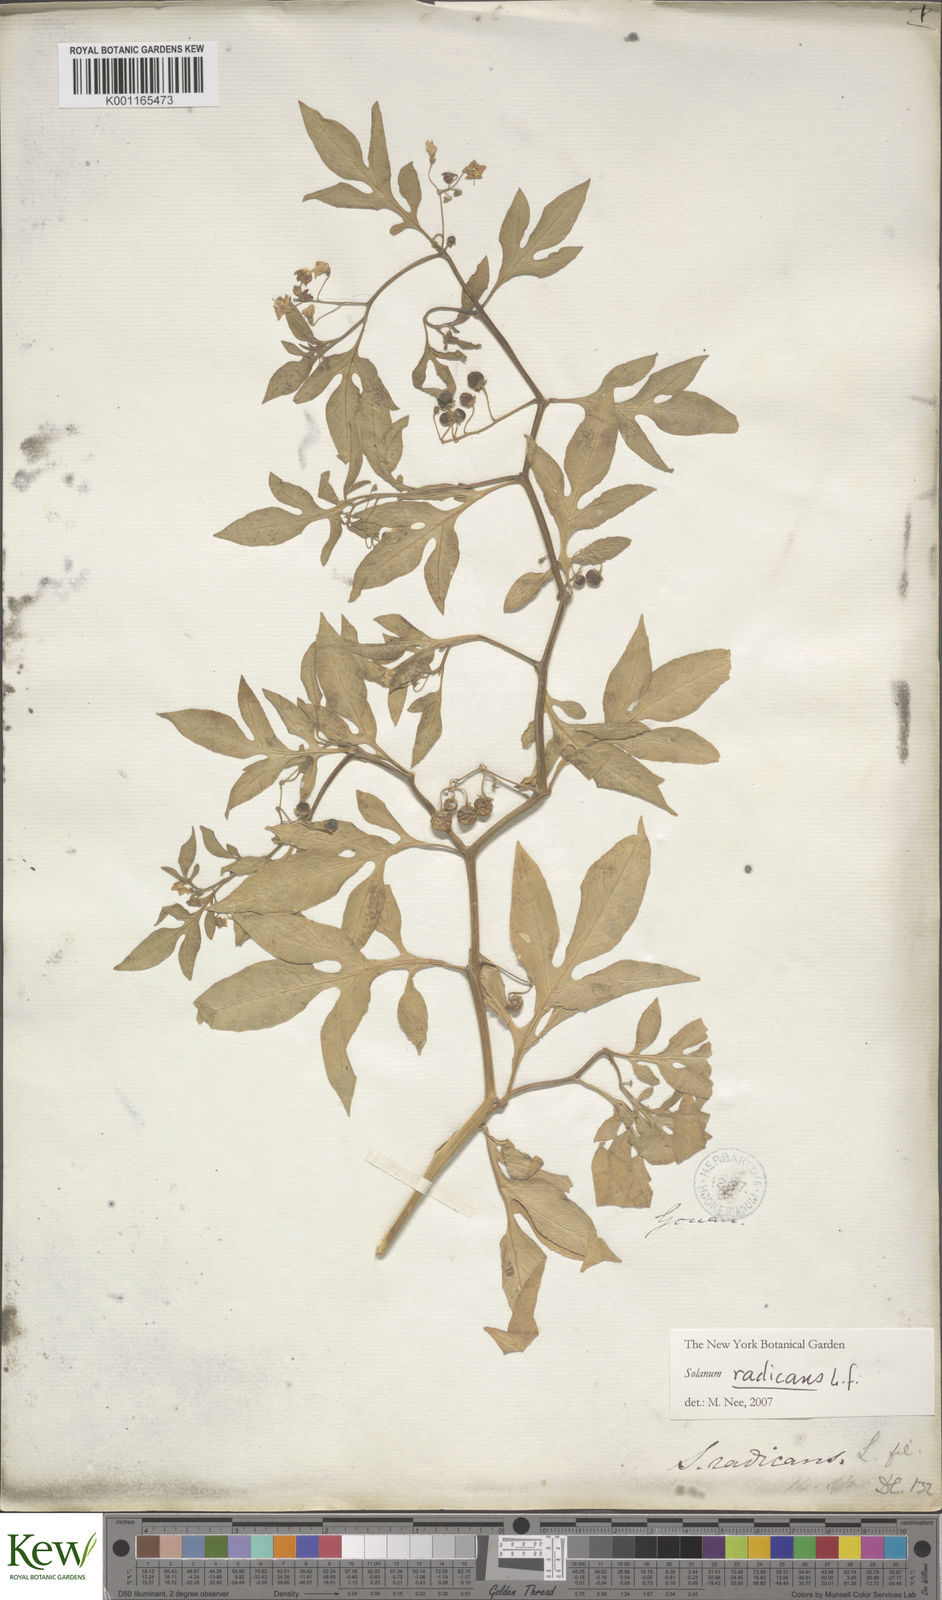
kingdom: Plantae
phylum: Tracheophyta
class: Magnoliopsida
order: Solanales
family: Solanaceae
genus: Solanum
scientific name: Solanum radicans
